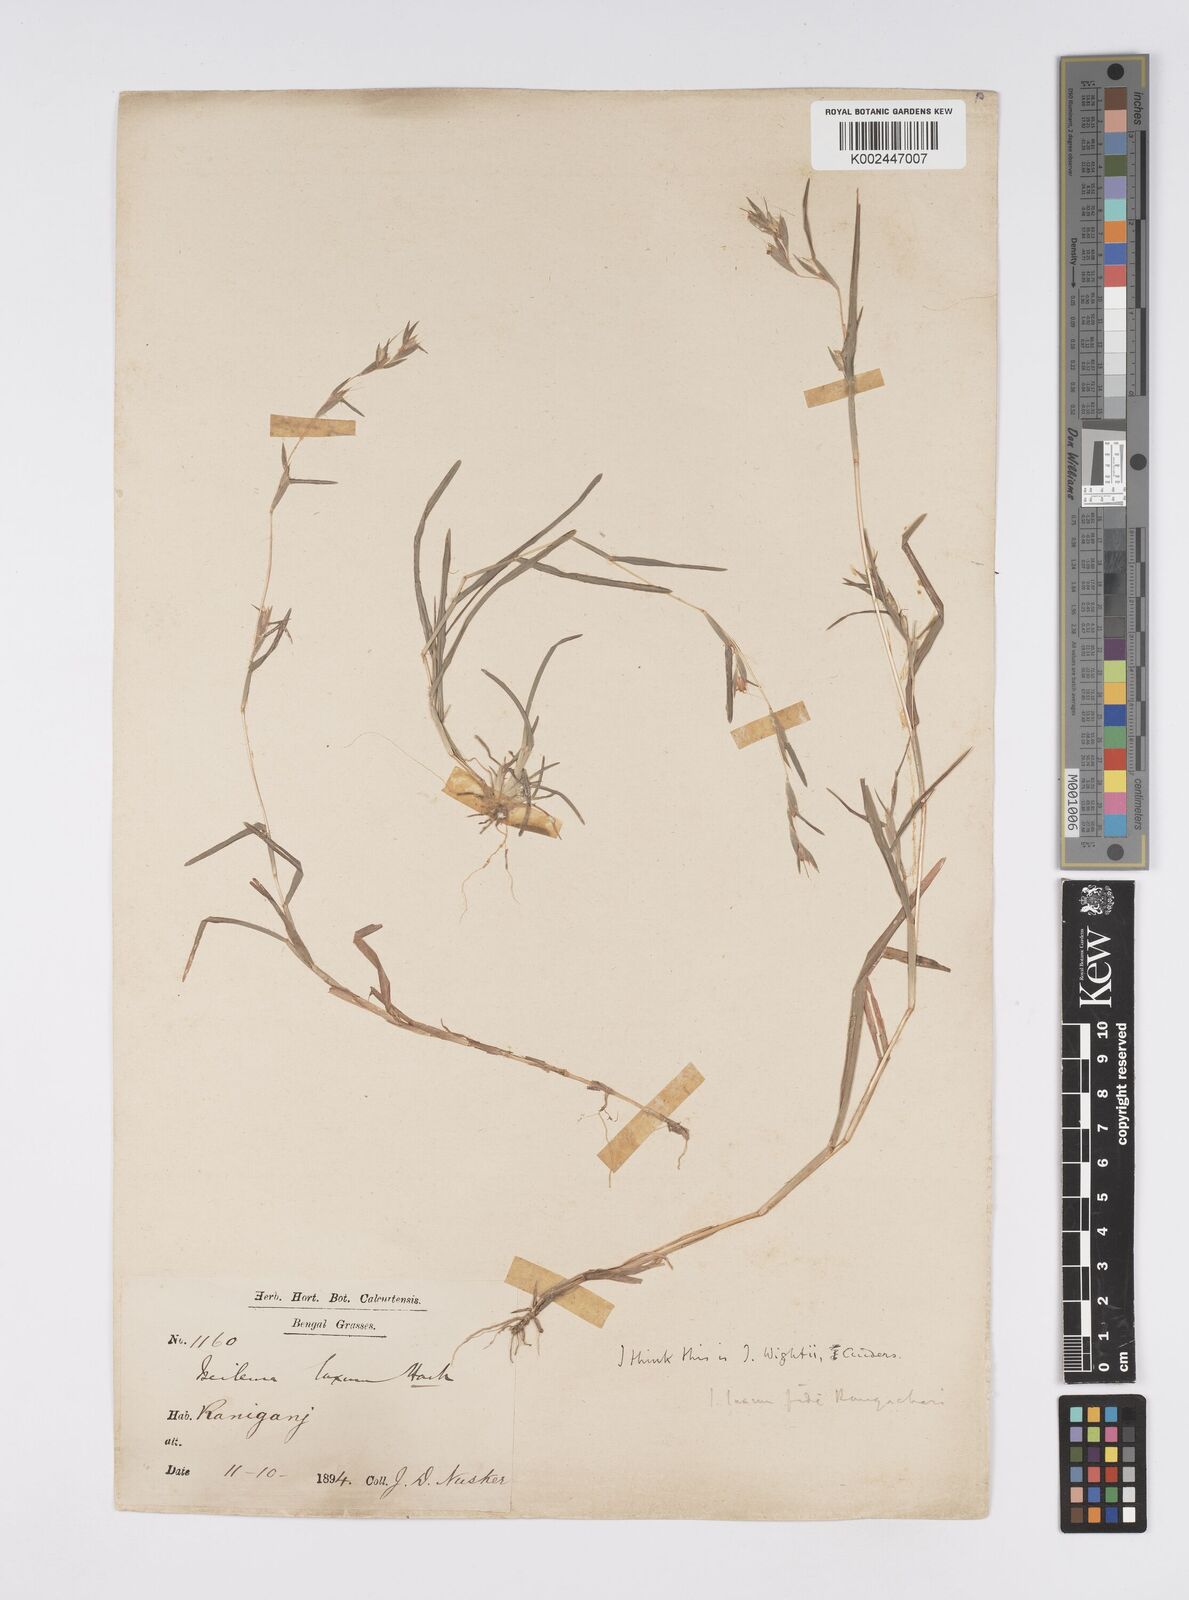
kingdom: Plantae
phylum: Tracheophyta
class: Liliopsida
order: Poales
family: Poaceae
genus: Iseilema
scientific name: Iseilema prostratum
